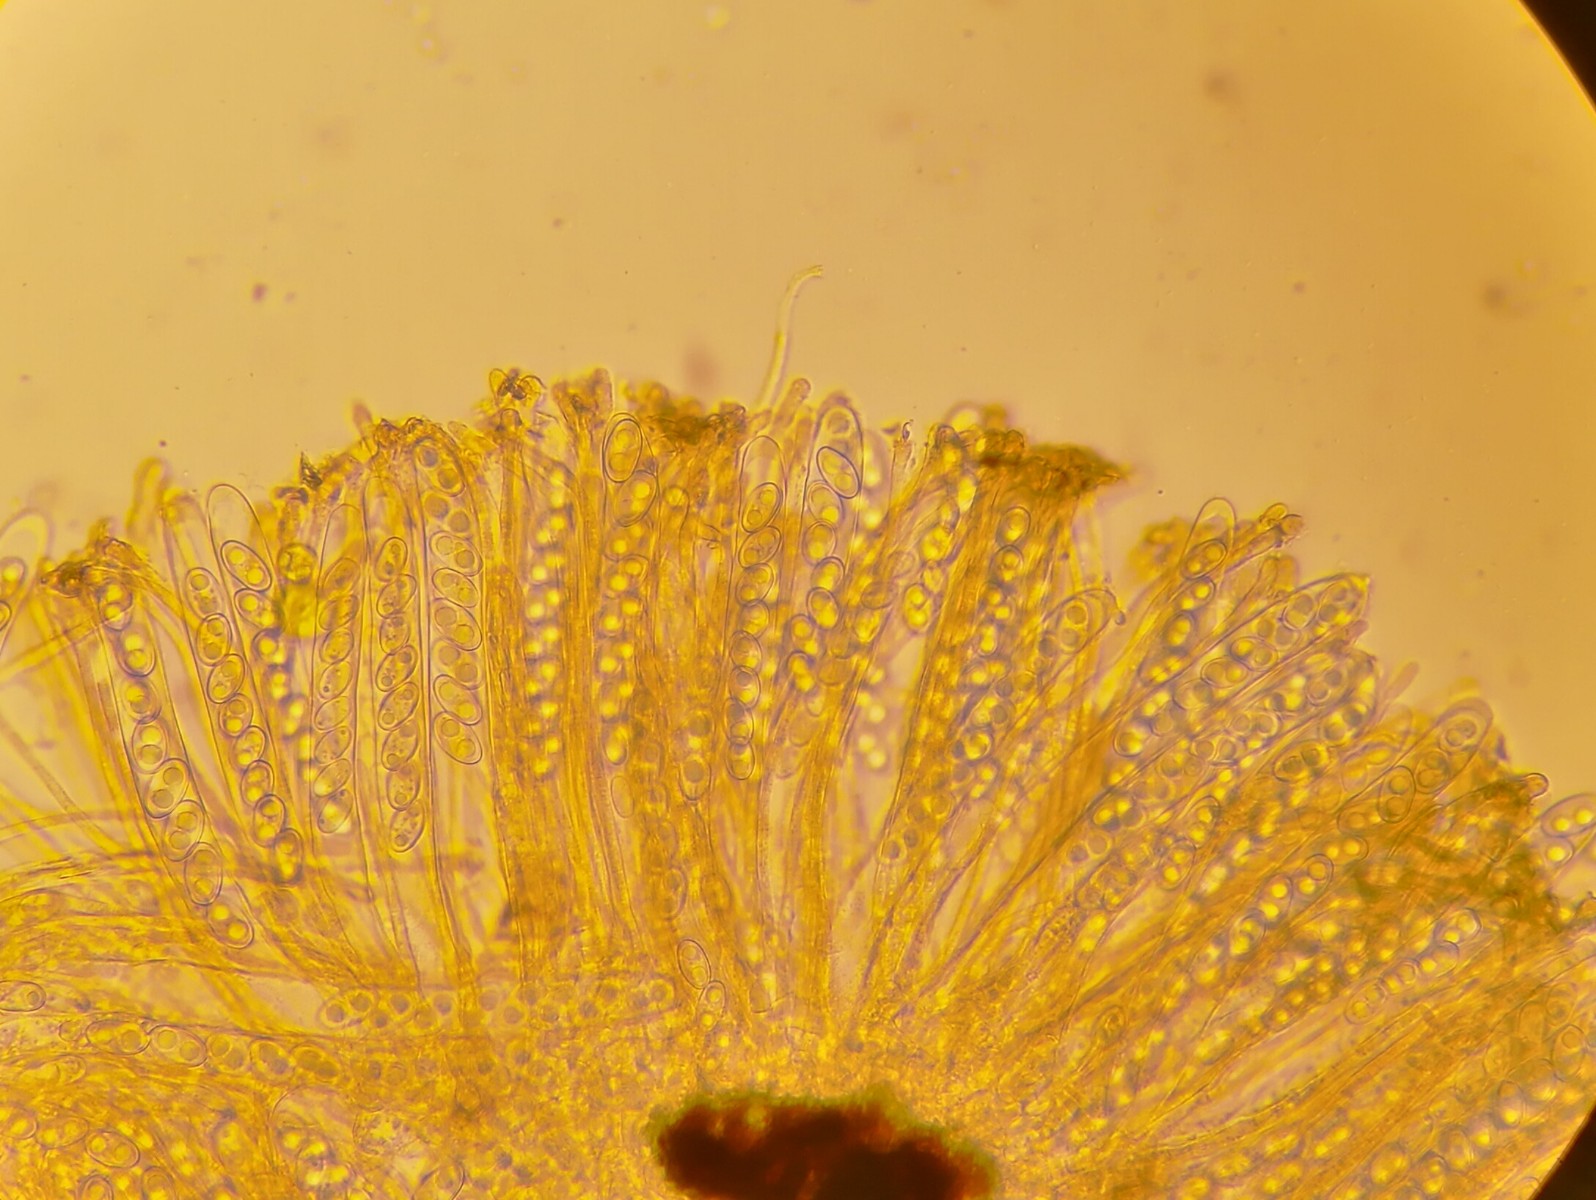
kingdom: Fungi
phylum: Ascomycota
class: Pezizomycetes
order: Pezizales
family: Pyronemataceae
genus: Anthracobia
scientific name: Anthracobia tristis
